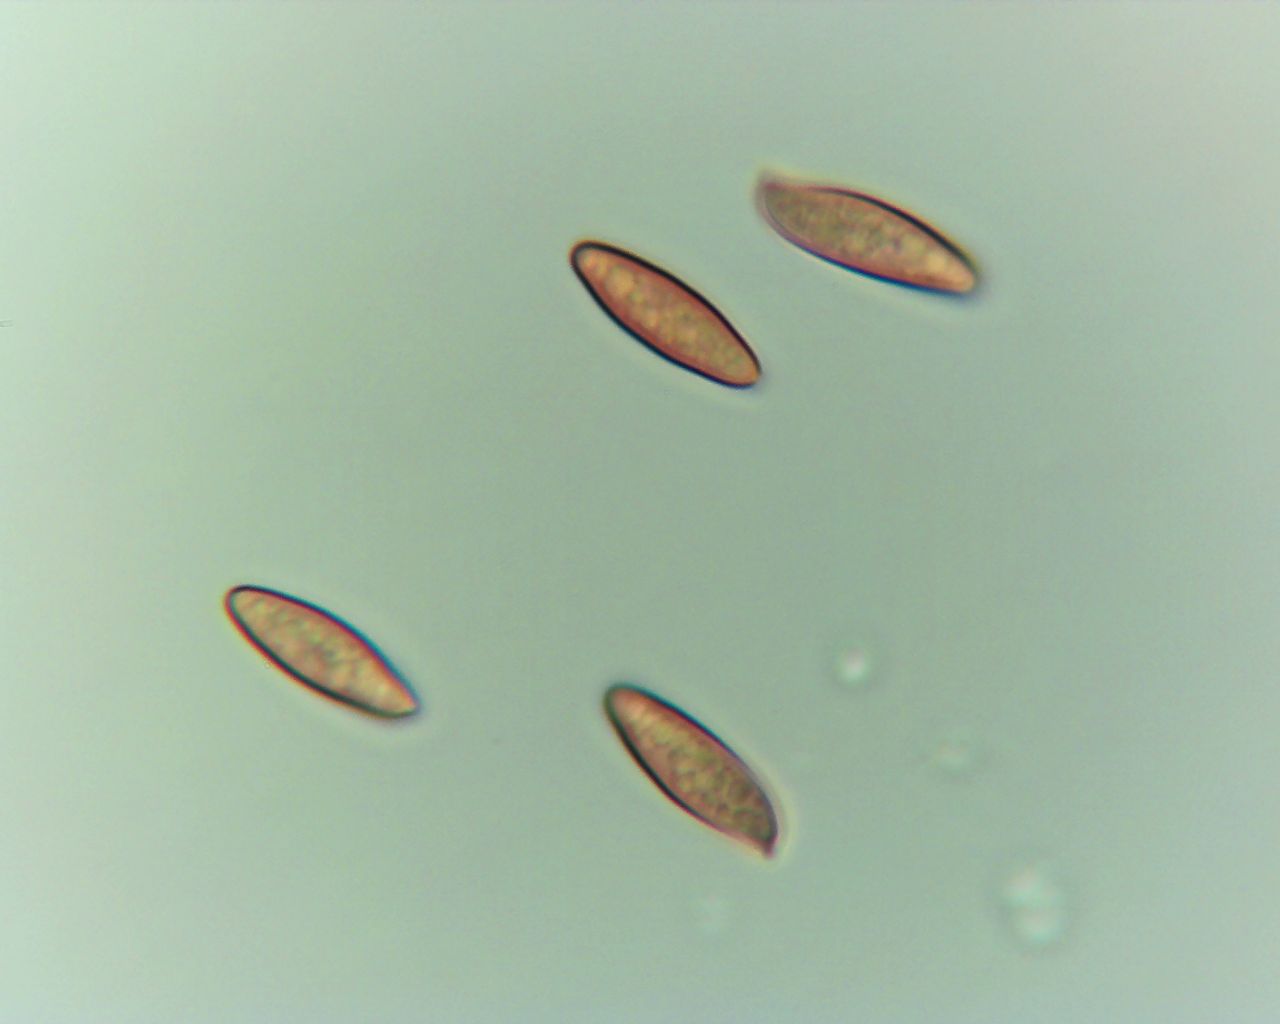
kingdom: Fungi
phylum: Basidiomycota
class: Agaricomycetes
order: Boletales
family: Boletaceae
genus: Leccinum
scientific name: Leccinum scabrum
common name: brun skælrørhat
